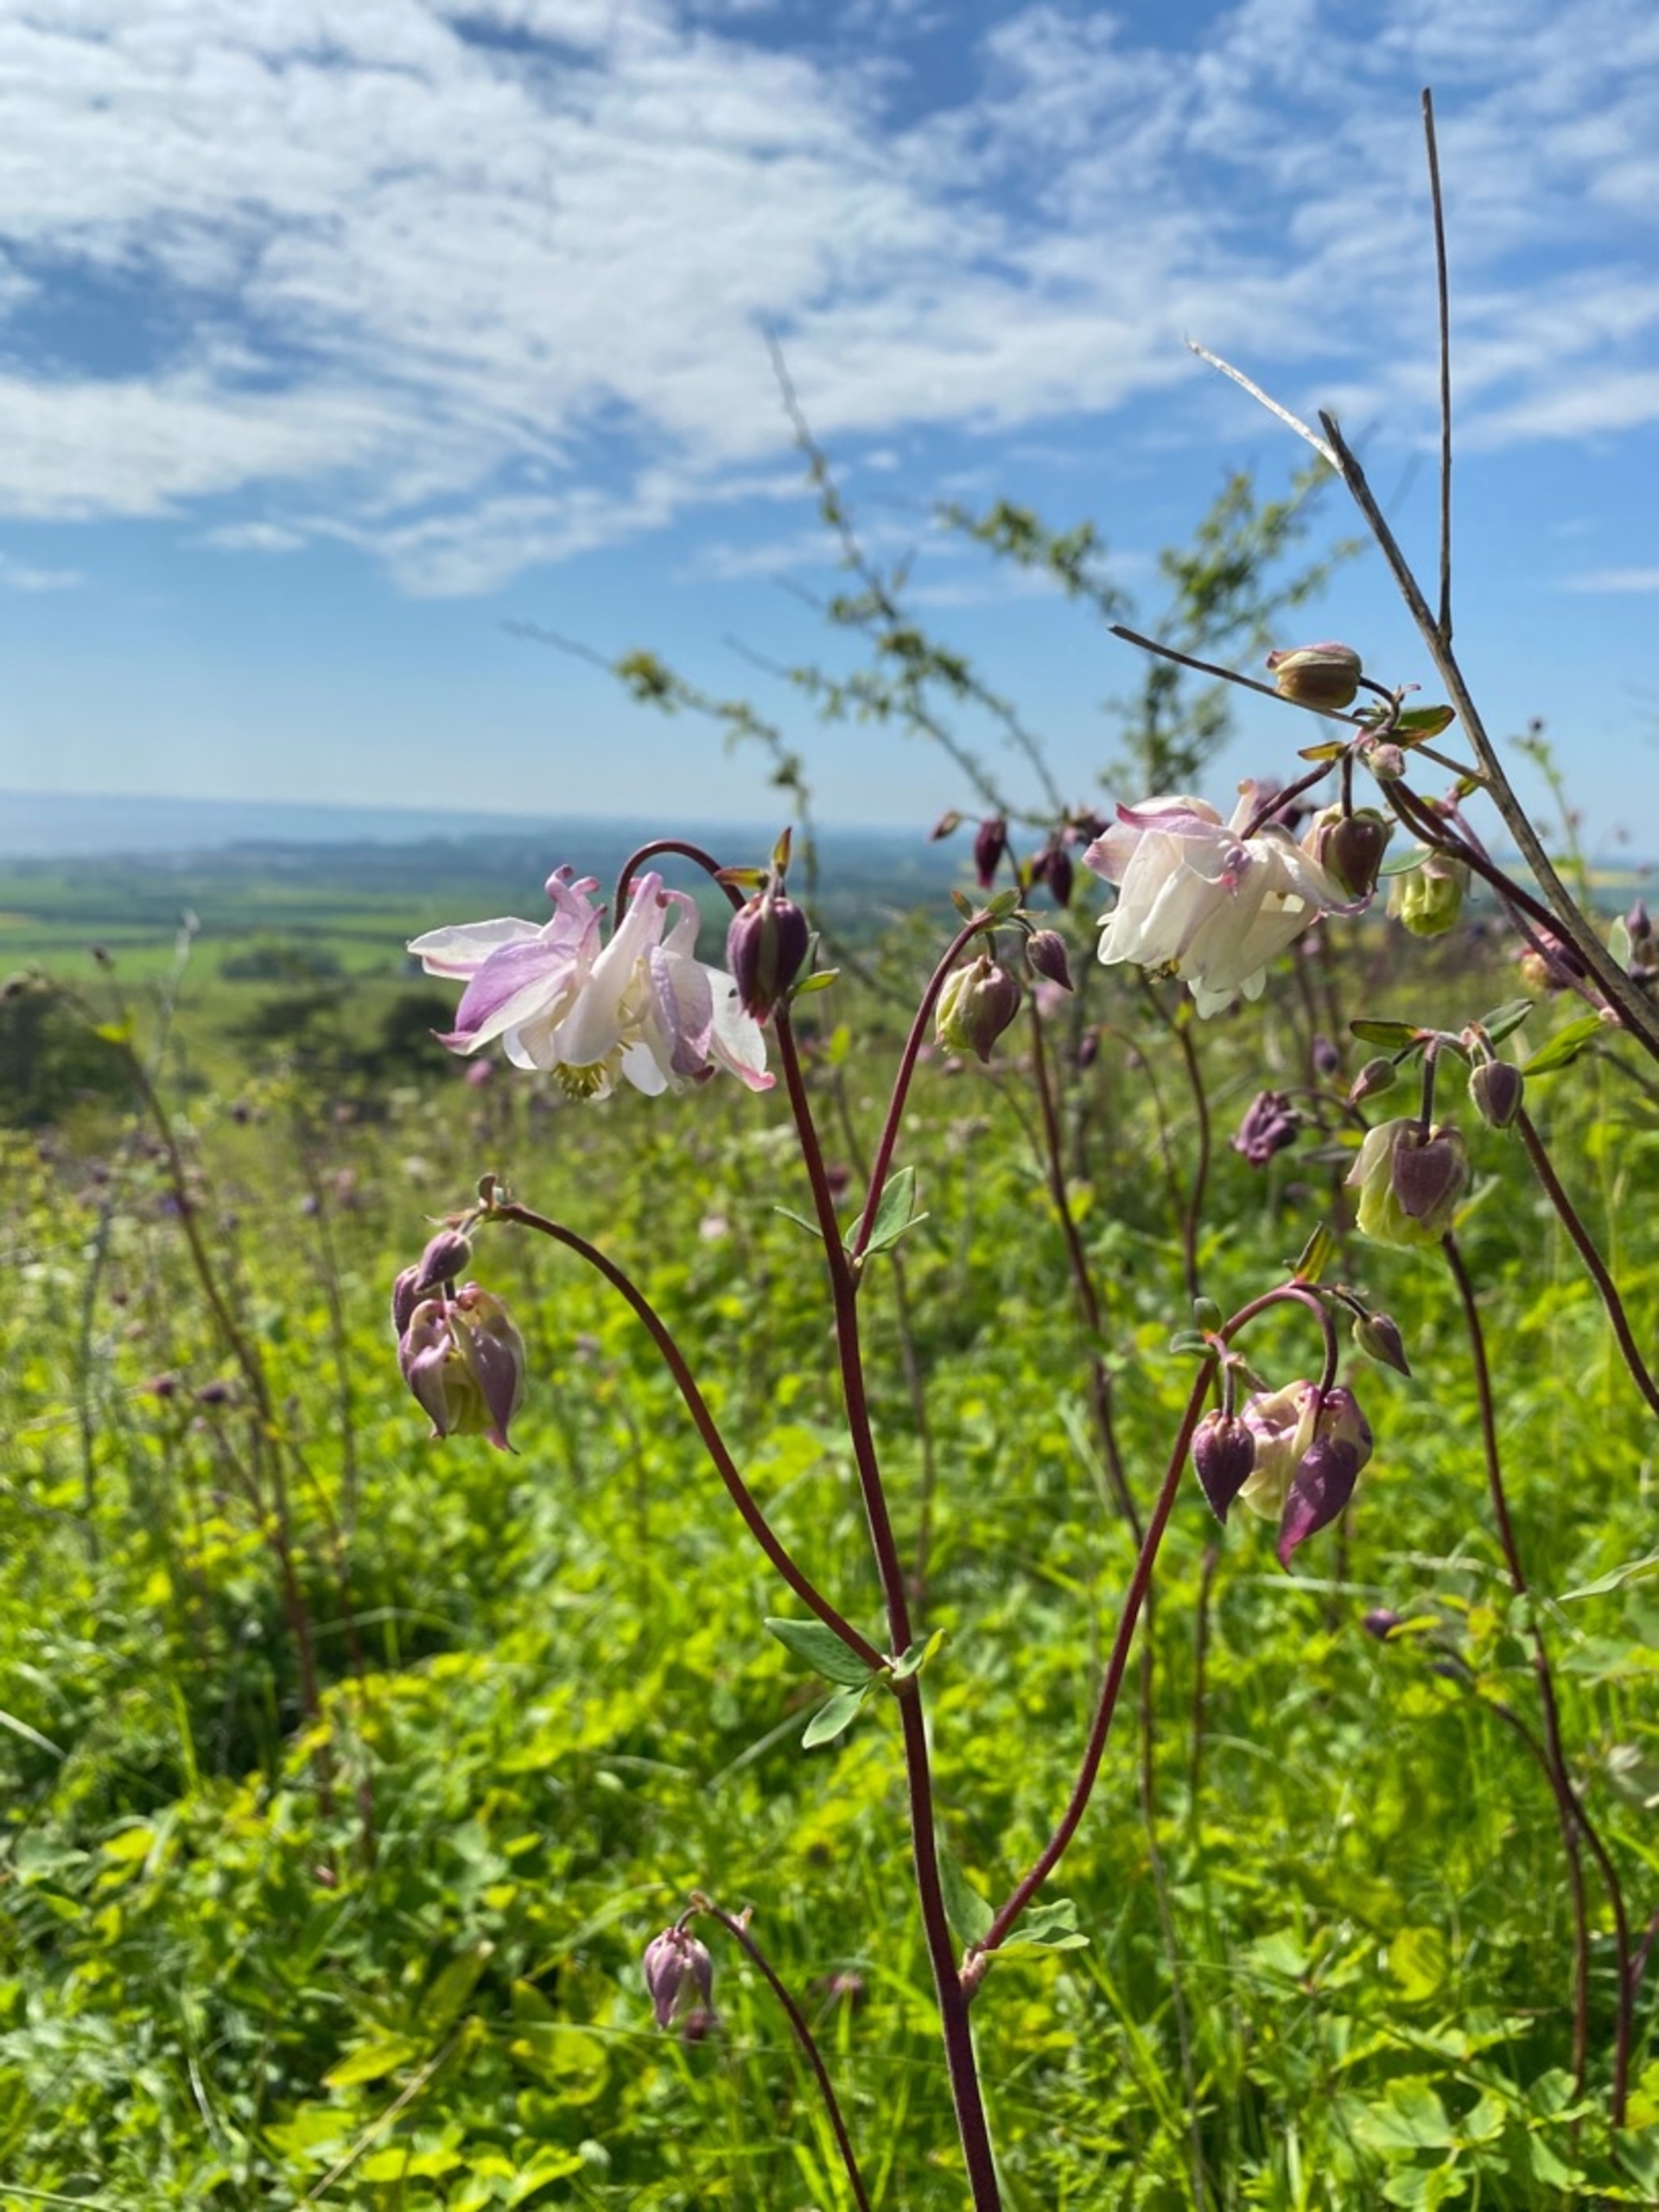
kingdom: Plantae
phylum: Tracheophyta
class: Magnoliopsida
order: Ranunculales
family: Ranunculaceae
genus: Aquilegia
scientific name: Aquilegia vulgaris
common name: Akeleje
